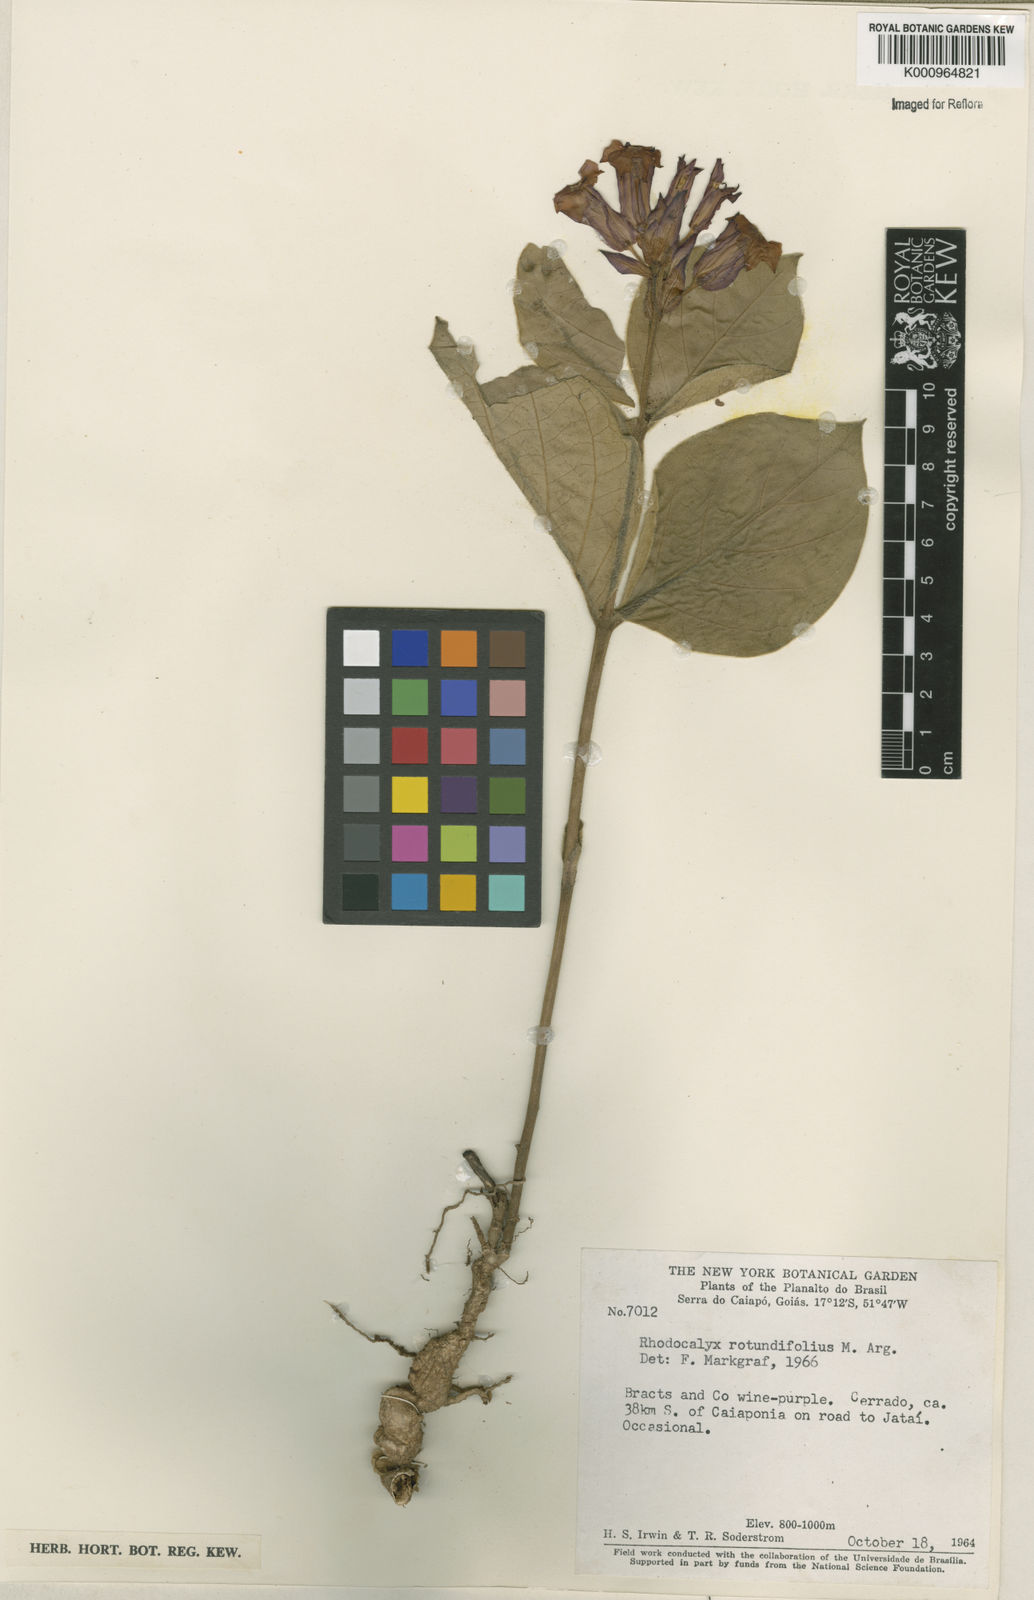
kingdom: Plantae
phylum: Tracheophyta
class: Magnoliopsida
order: Gentianales
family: Apocynaceae
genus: Rhodocalyx
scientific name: Rhodocalyx
